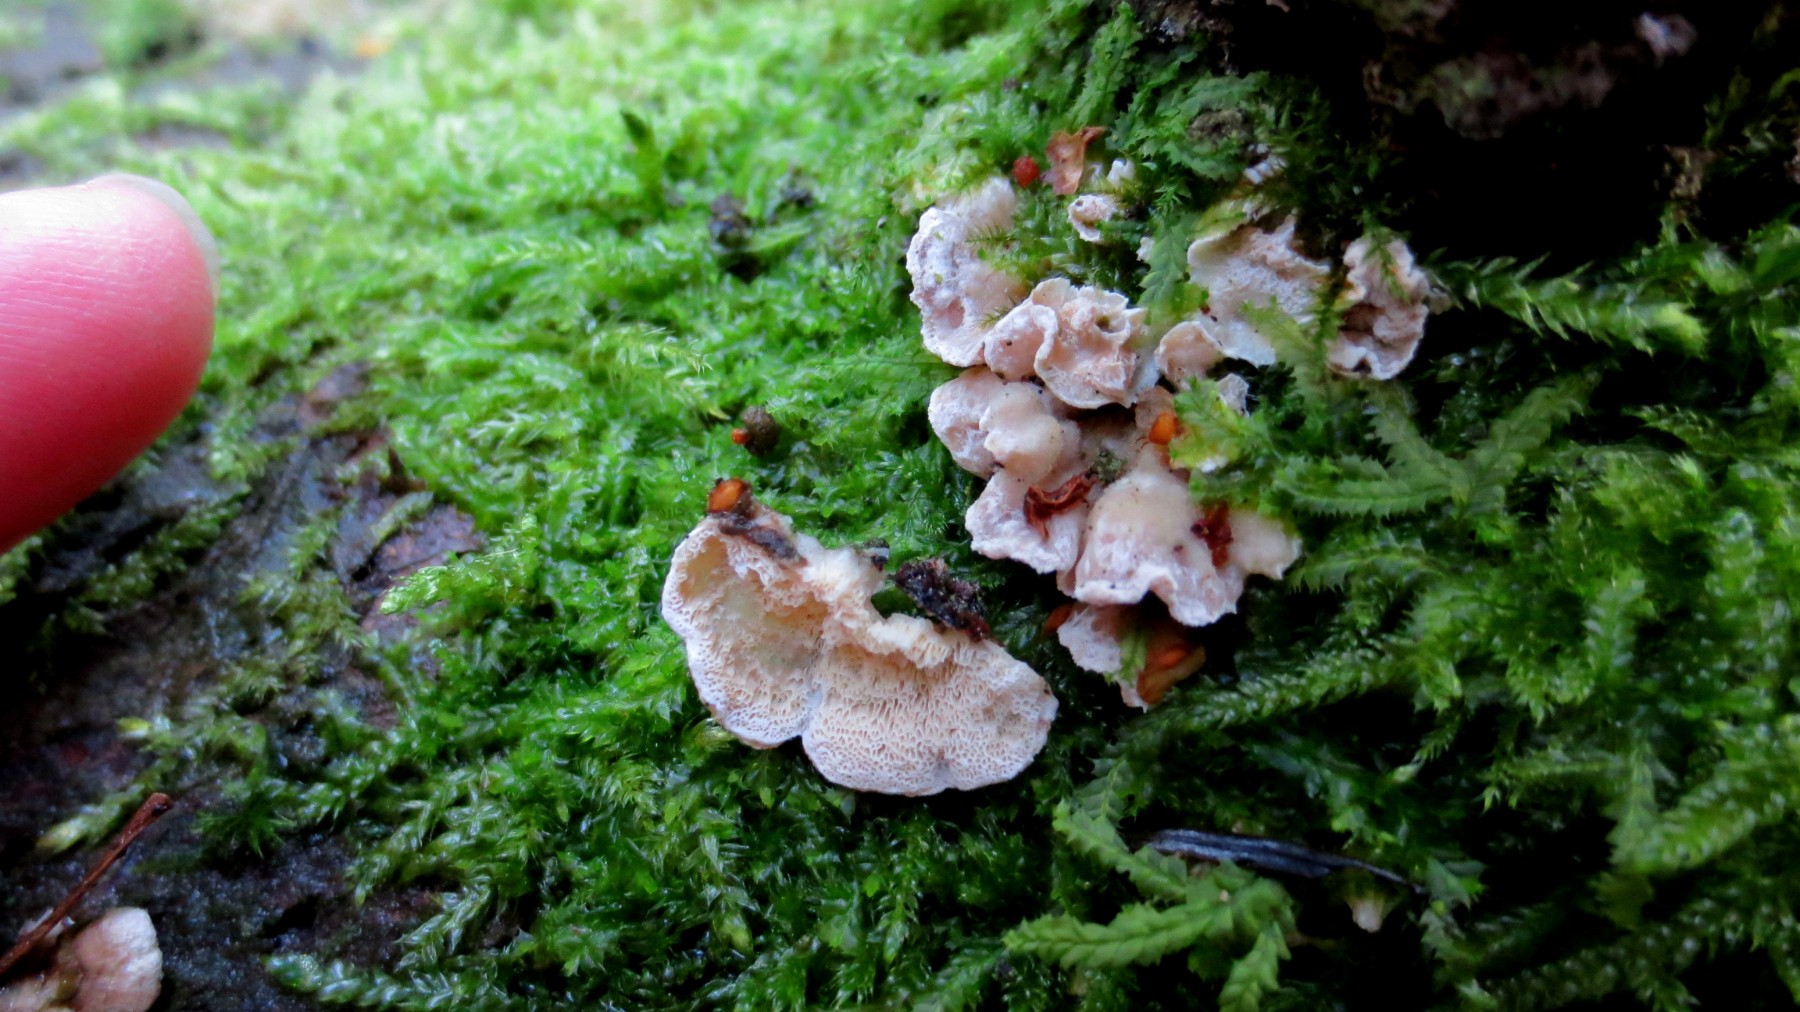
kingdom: Fungi
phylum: Basidiomycota
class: Agaricomycetes
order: Polyporales
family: Incrustoporiaceae
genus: Skeletocutis
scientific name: Skeletocutis carneogrisea
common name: rødgrå krystalporesvamp
